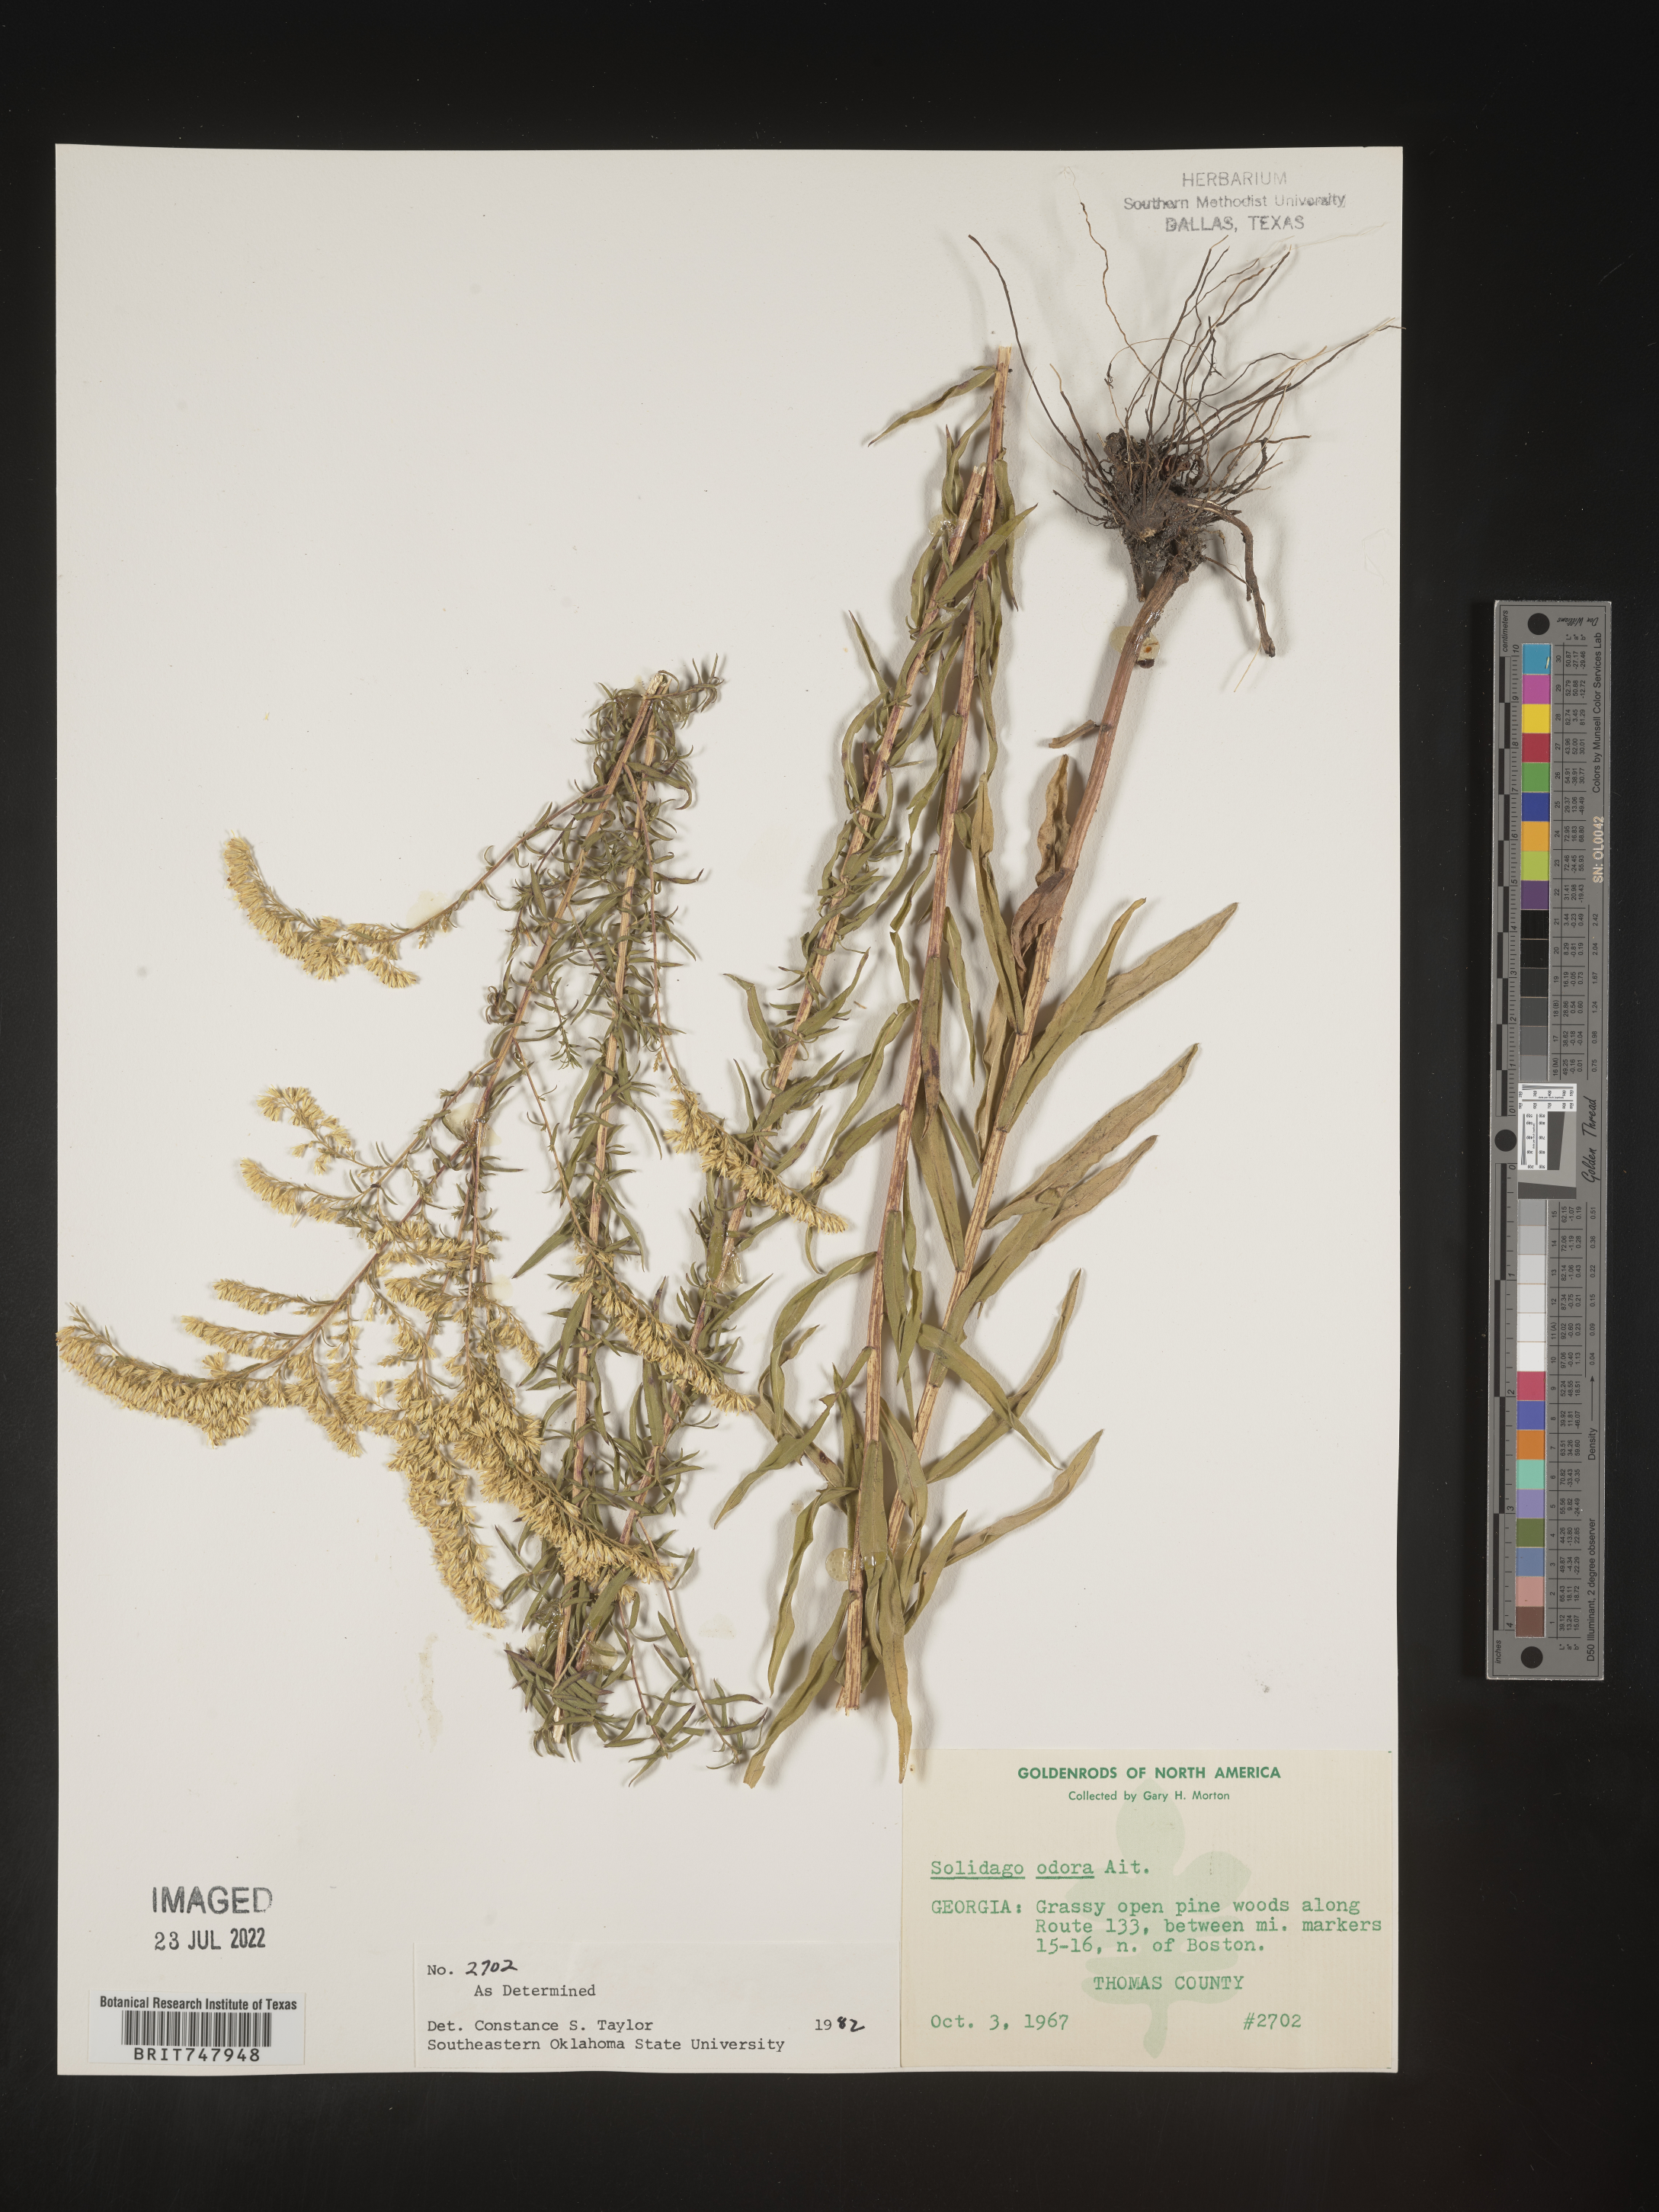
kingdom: Plantae
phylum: Tracheophyta
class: Magnoliopsida
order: Asterales
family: Asteraceae
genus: Solidago
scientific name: Solidago odora
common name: Anise-scented goldenrod
